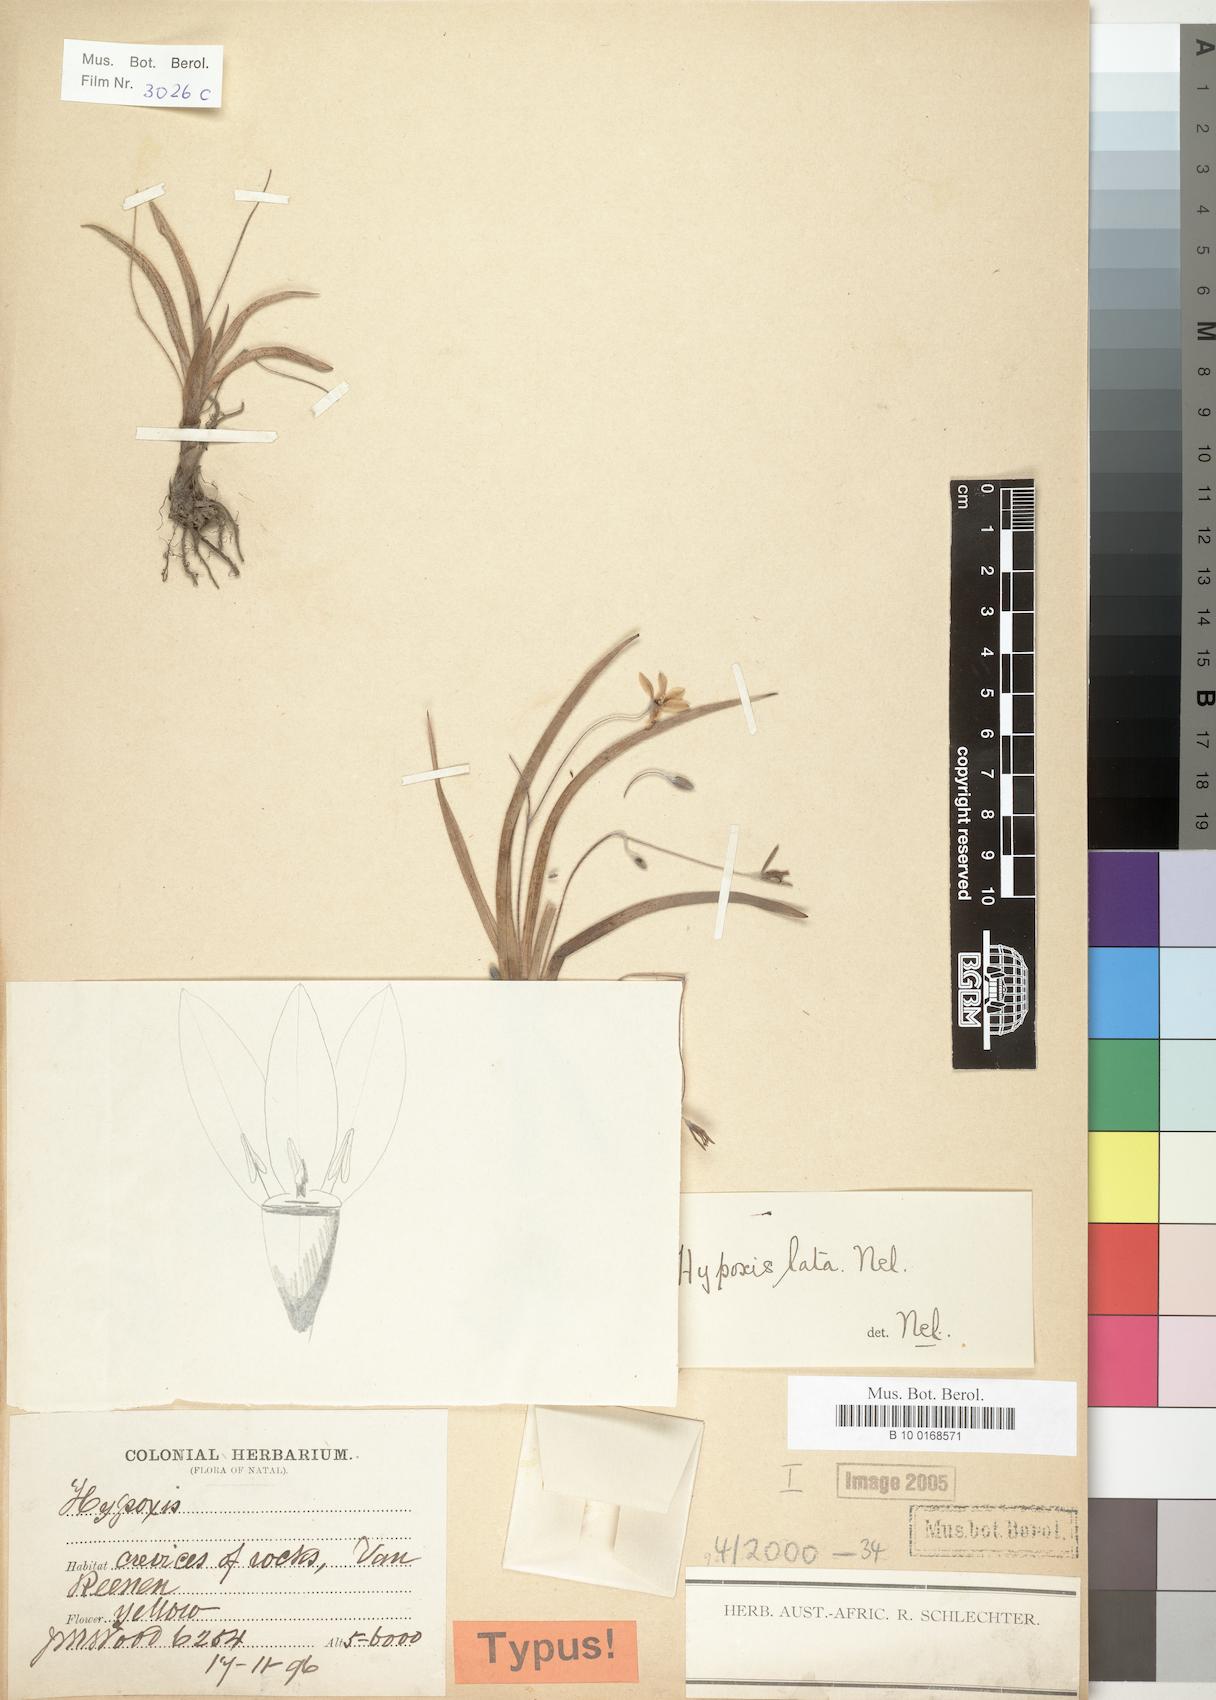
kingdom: Plantae
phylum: Tracheophyta
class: Liliopsida
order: Asparagales
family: Hypoxidaceae
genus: Hypoxis
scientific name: Hypoxis lata
